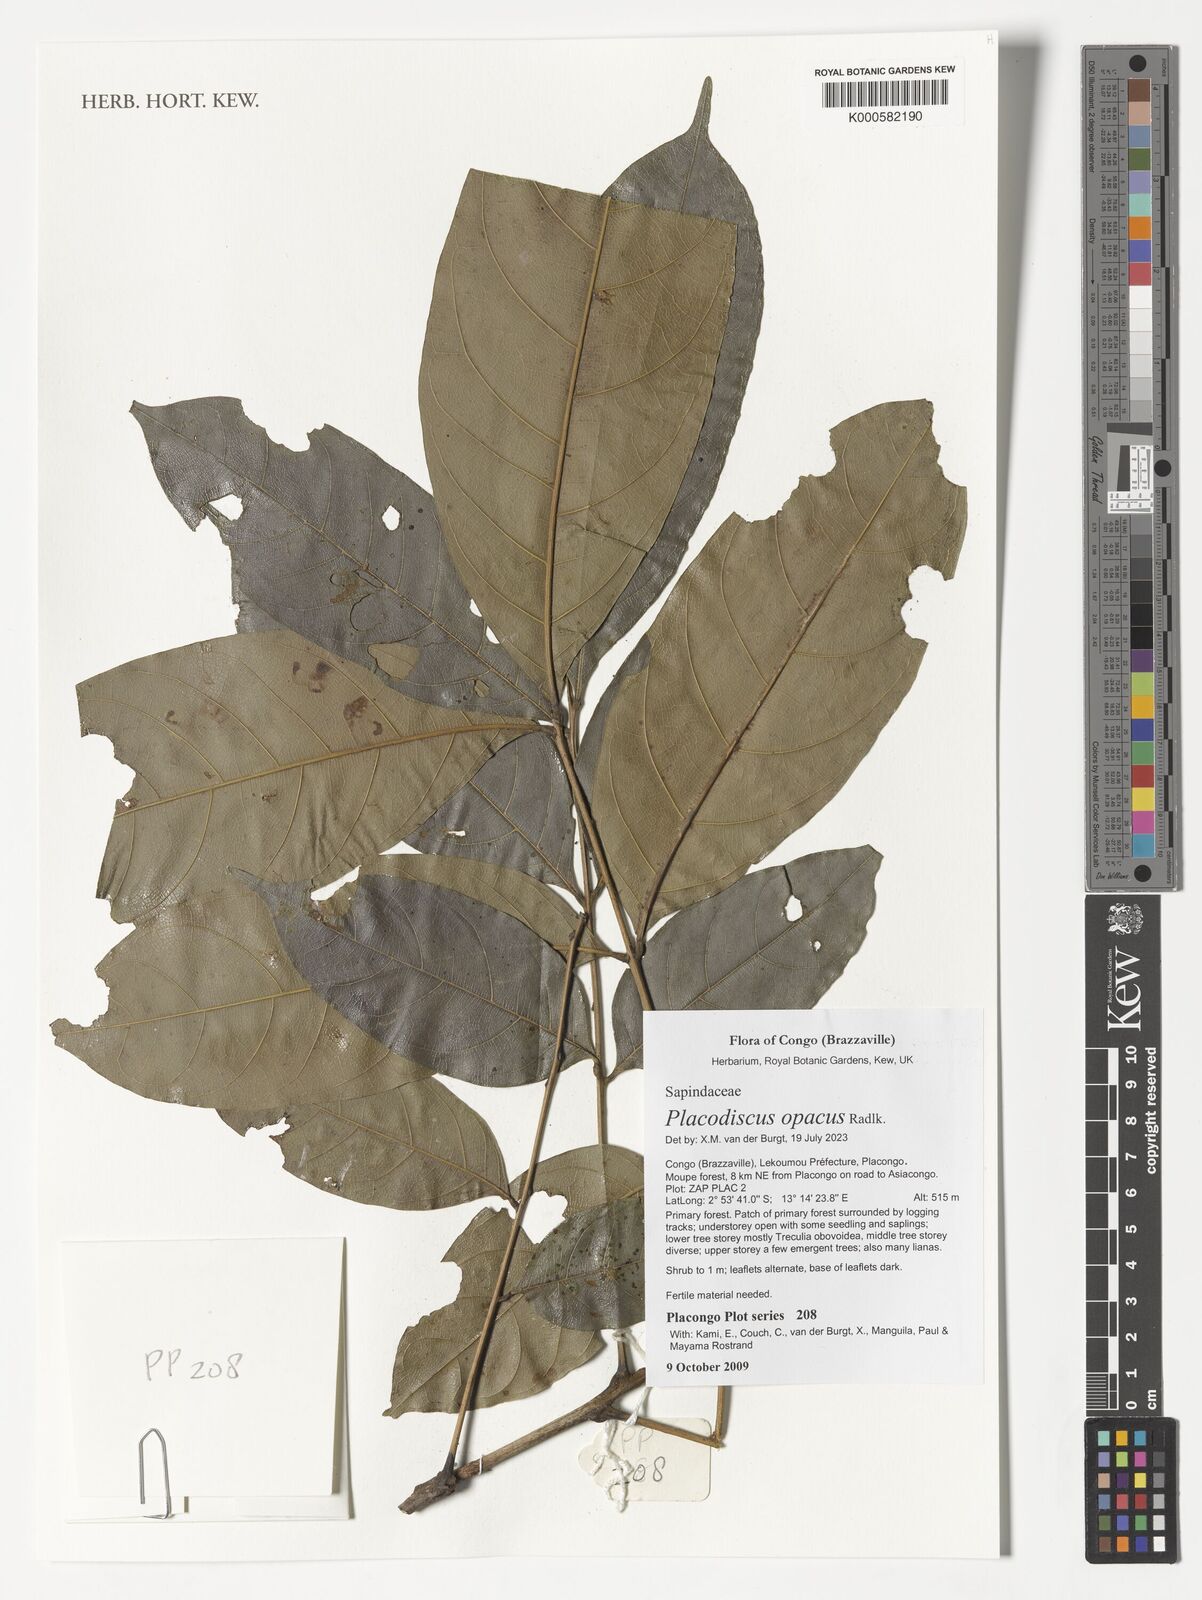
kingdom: Plantae
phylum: Tracheophyta
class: Magnoliopsida
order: Sapindales
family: Sapindaceae
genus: Placodiscus
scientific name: Placodiscus opacus
